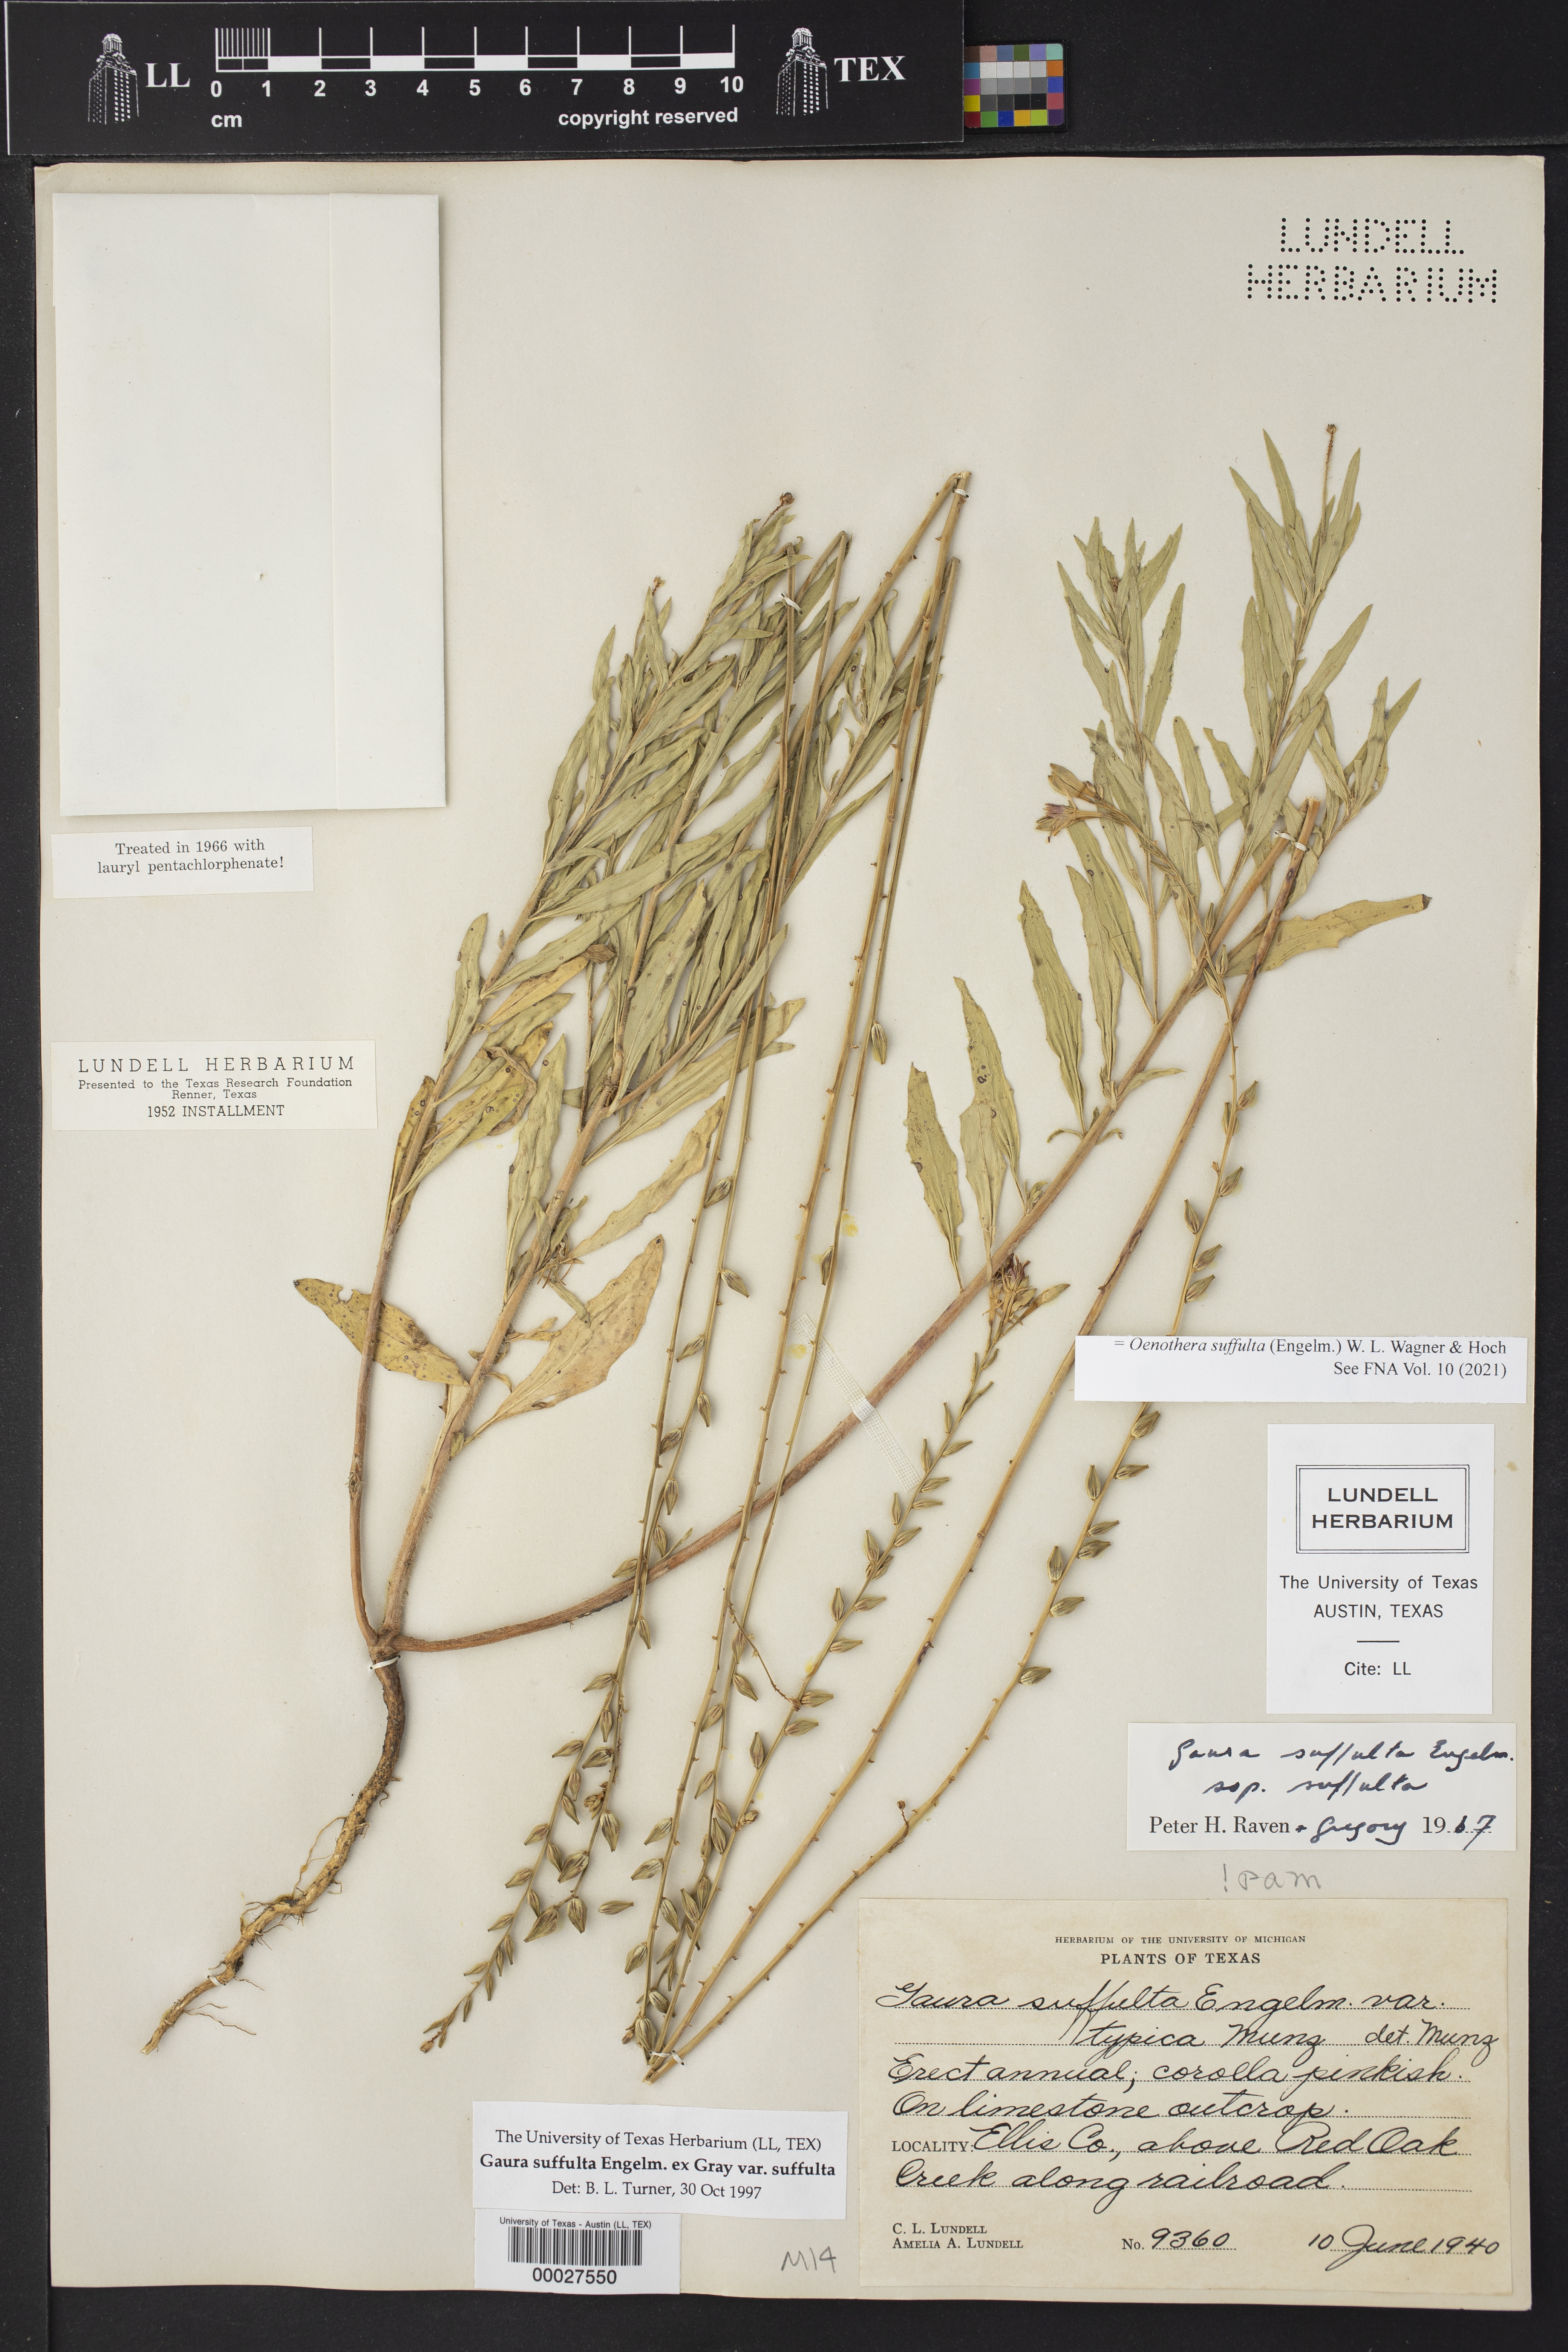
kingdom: Plantae
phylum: Tracheophyta
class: Magnoliopsida
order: Myrtales
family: Onagraceae
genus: Oenothera
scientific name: Oenothera suffulta
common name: Kisses
